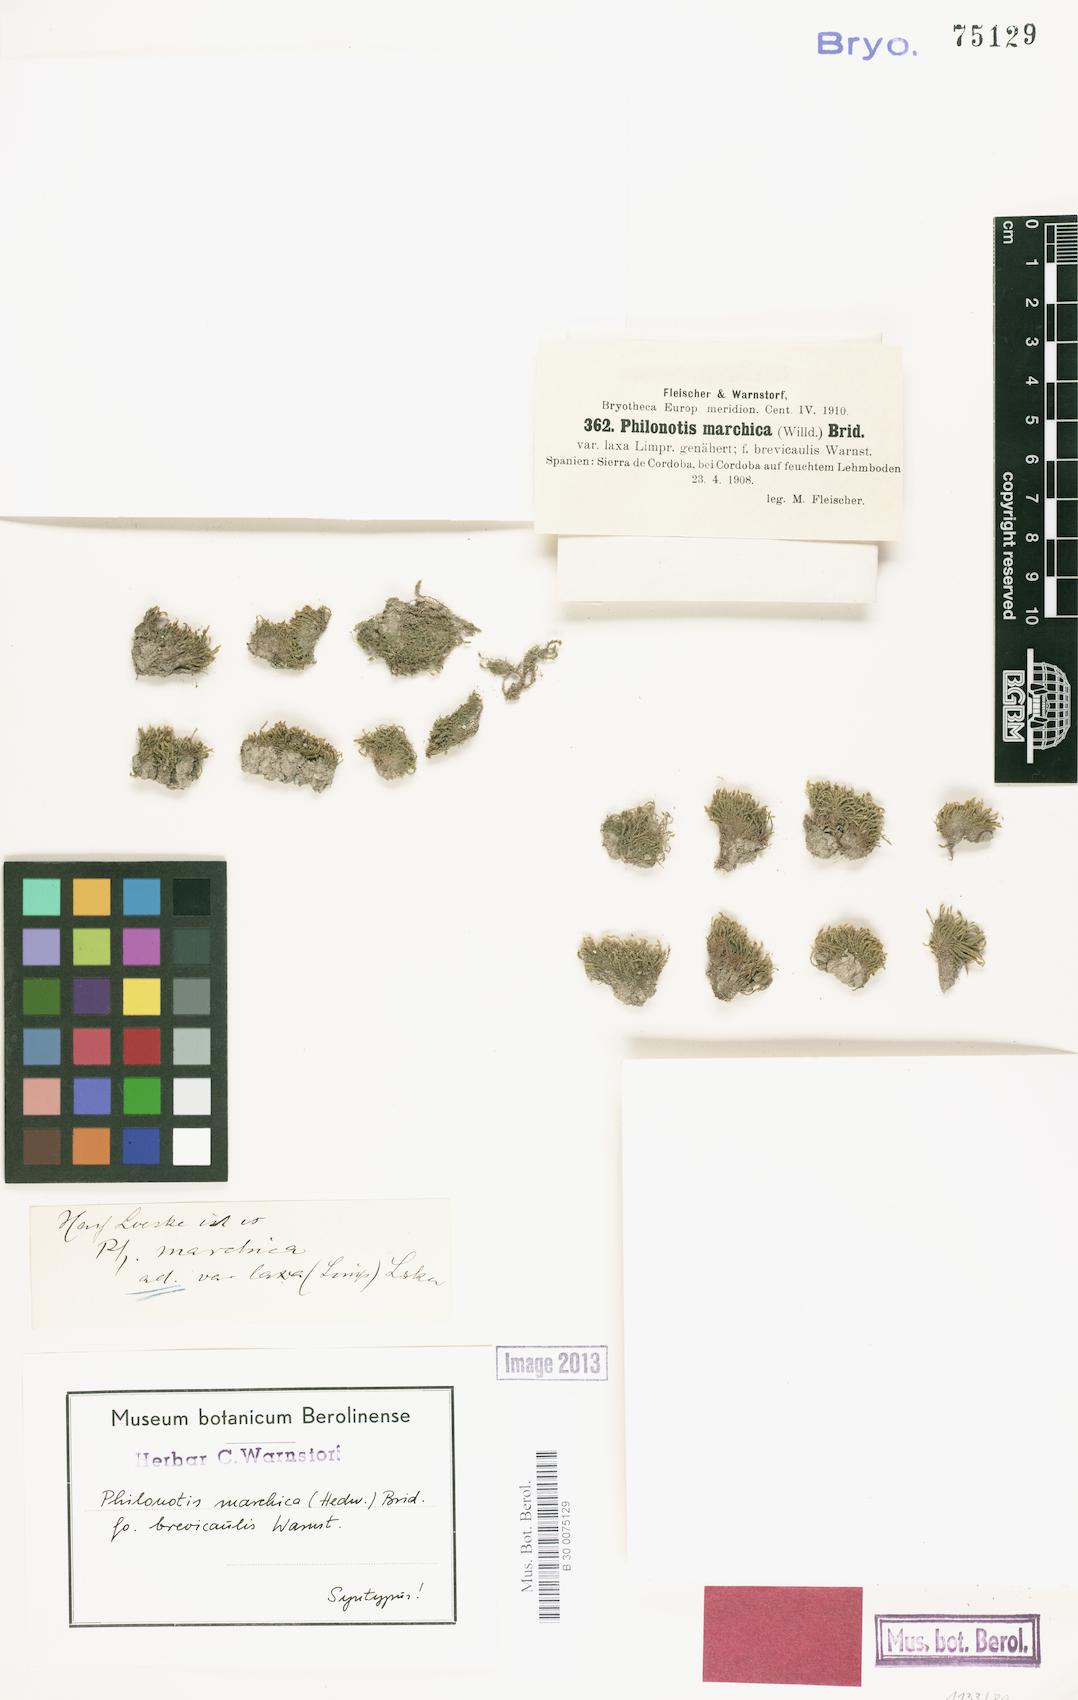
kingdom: Plantae
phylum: Bryophyta
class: Bryopsida
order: Bartramiales
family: Bartramiaceae
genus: Philonotis
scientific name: Philonotis marchica
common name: Bog apple moss
